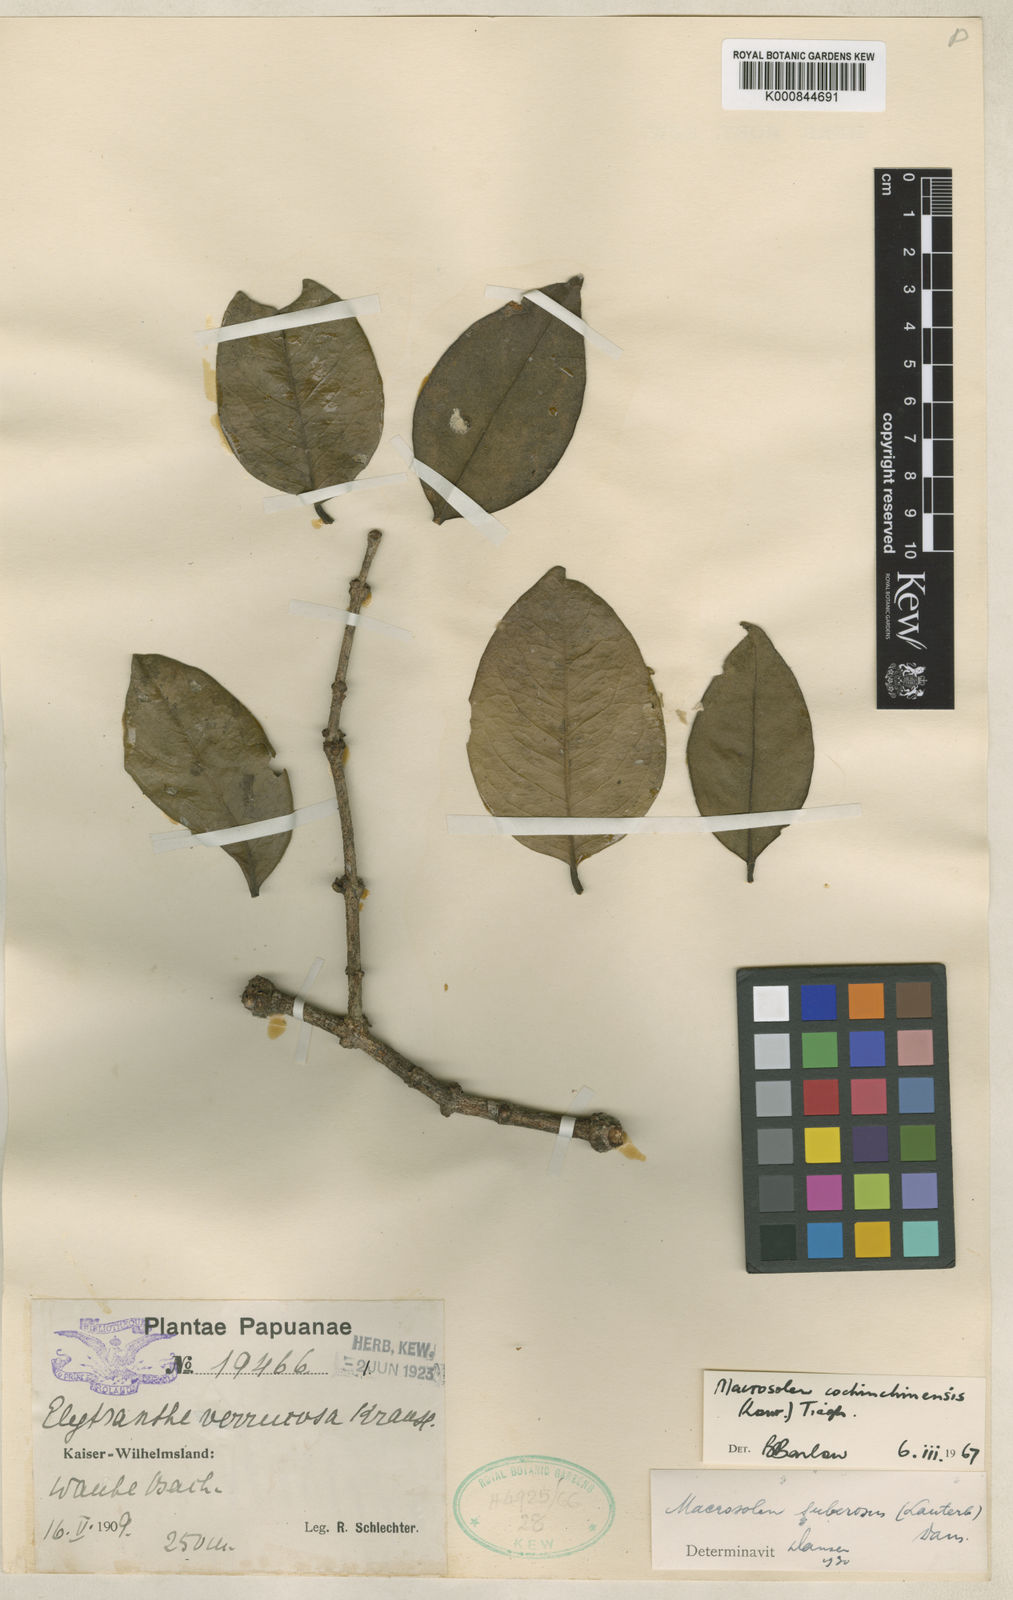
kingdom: Plantae
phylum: Tracheophyta
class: Magnoliopsida
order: Santalales
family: Loranthaceae
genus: Macrosolen
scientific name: Macrosolen cochinchinensis
